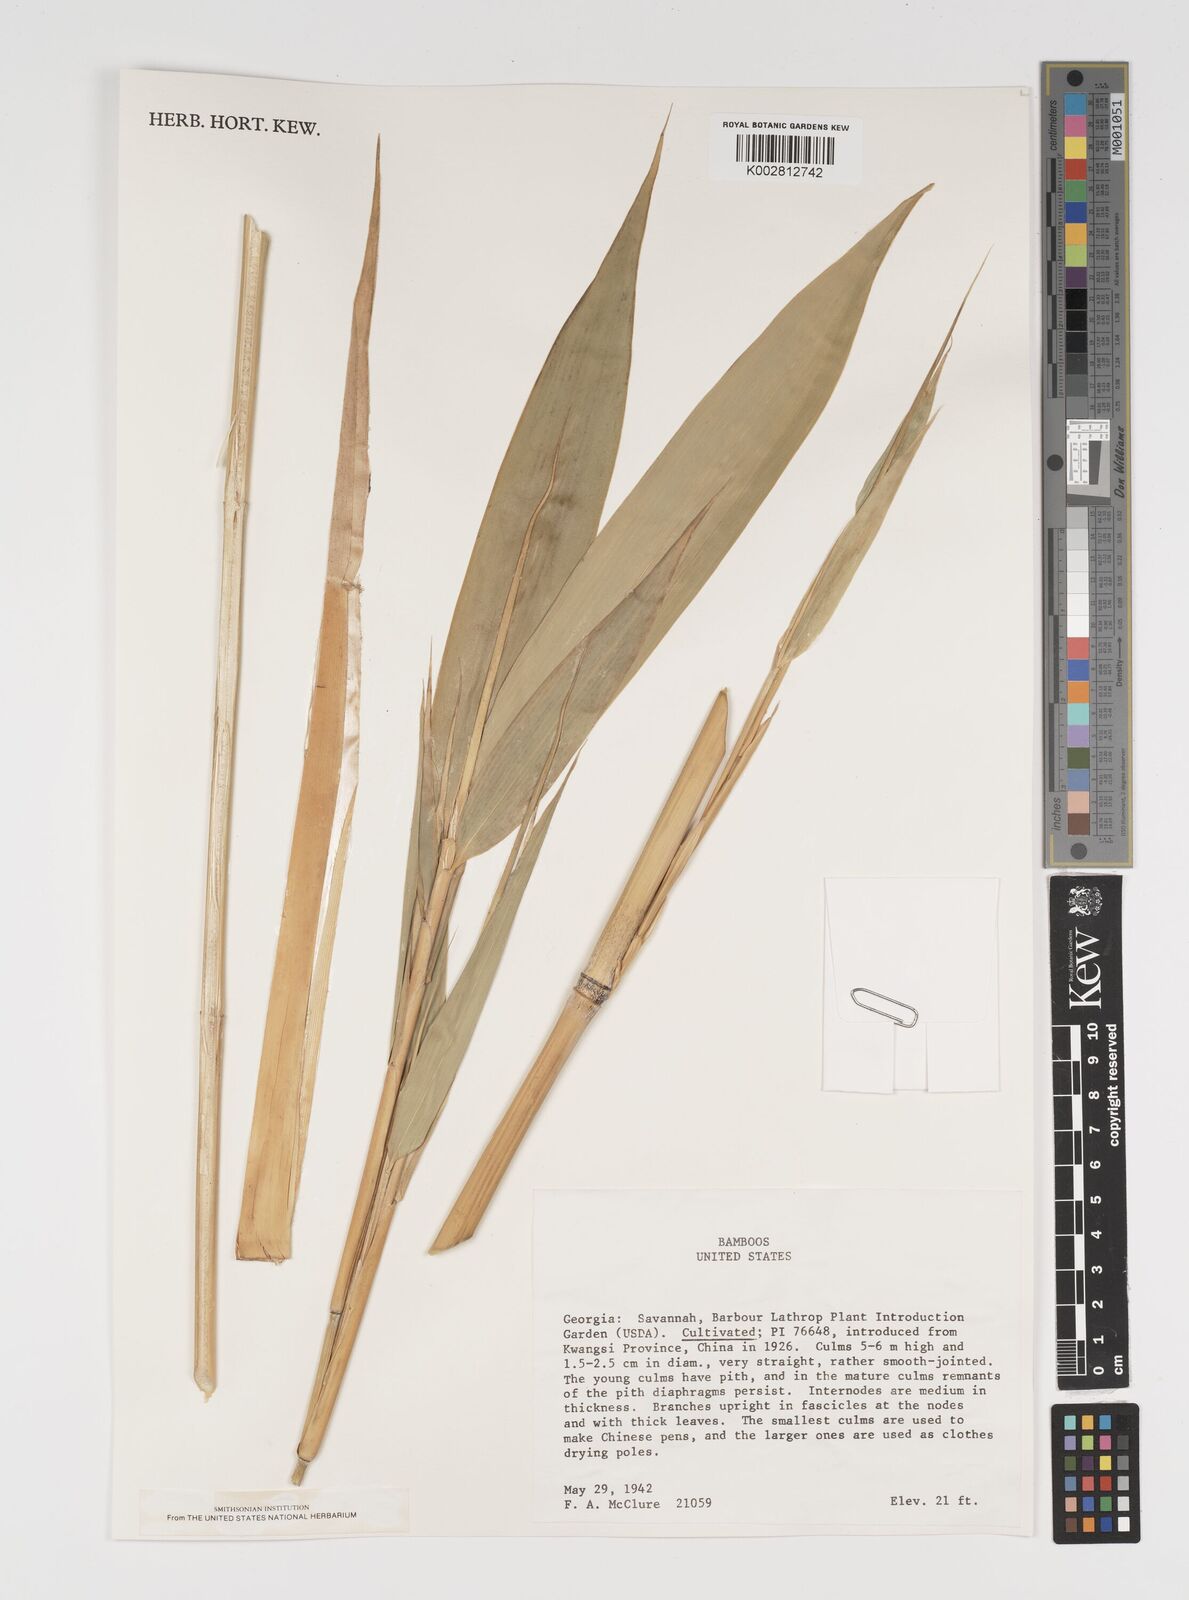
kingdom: Plantae
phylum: Tracheophyta
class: Liliopsida
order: Poales
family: Poaceae
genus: Arundinaria
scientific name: Arundinaria
